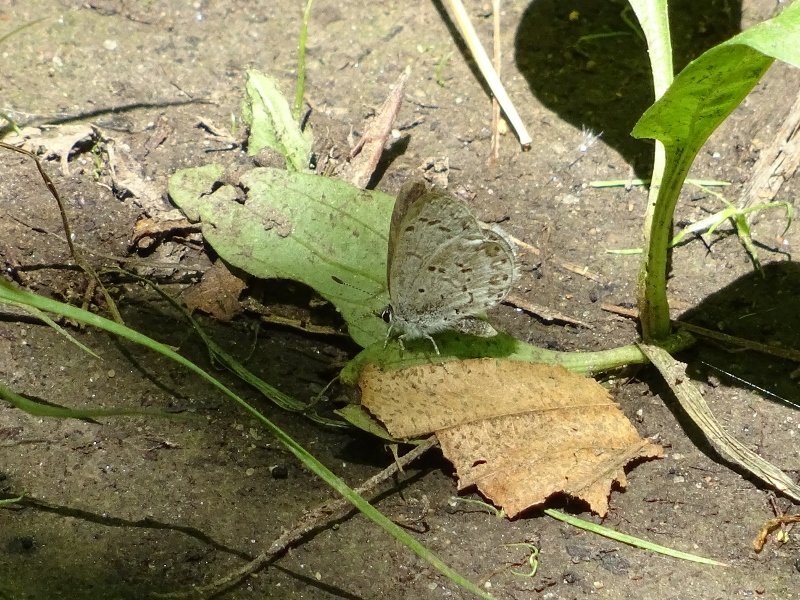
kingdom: Animalia
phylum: Arthropoda
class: Insecta
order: Lepidoptera
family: Lycaenidae
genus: Celastrina
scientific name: Celastrina
